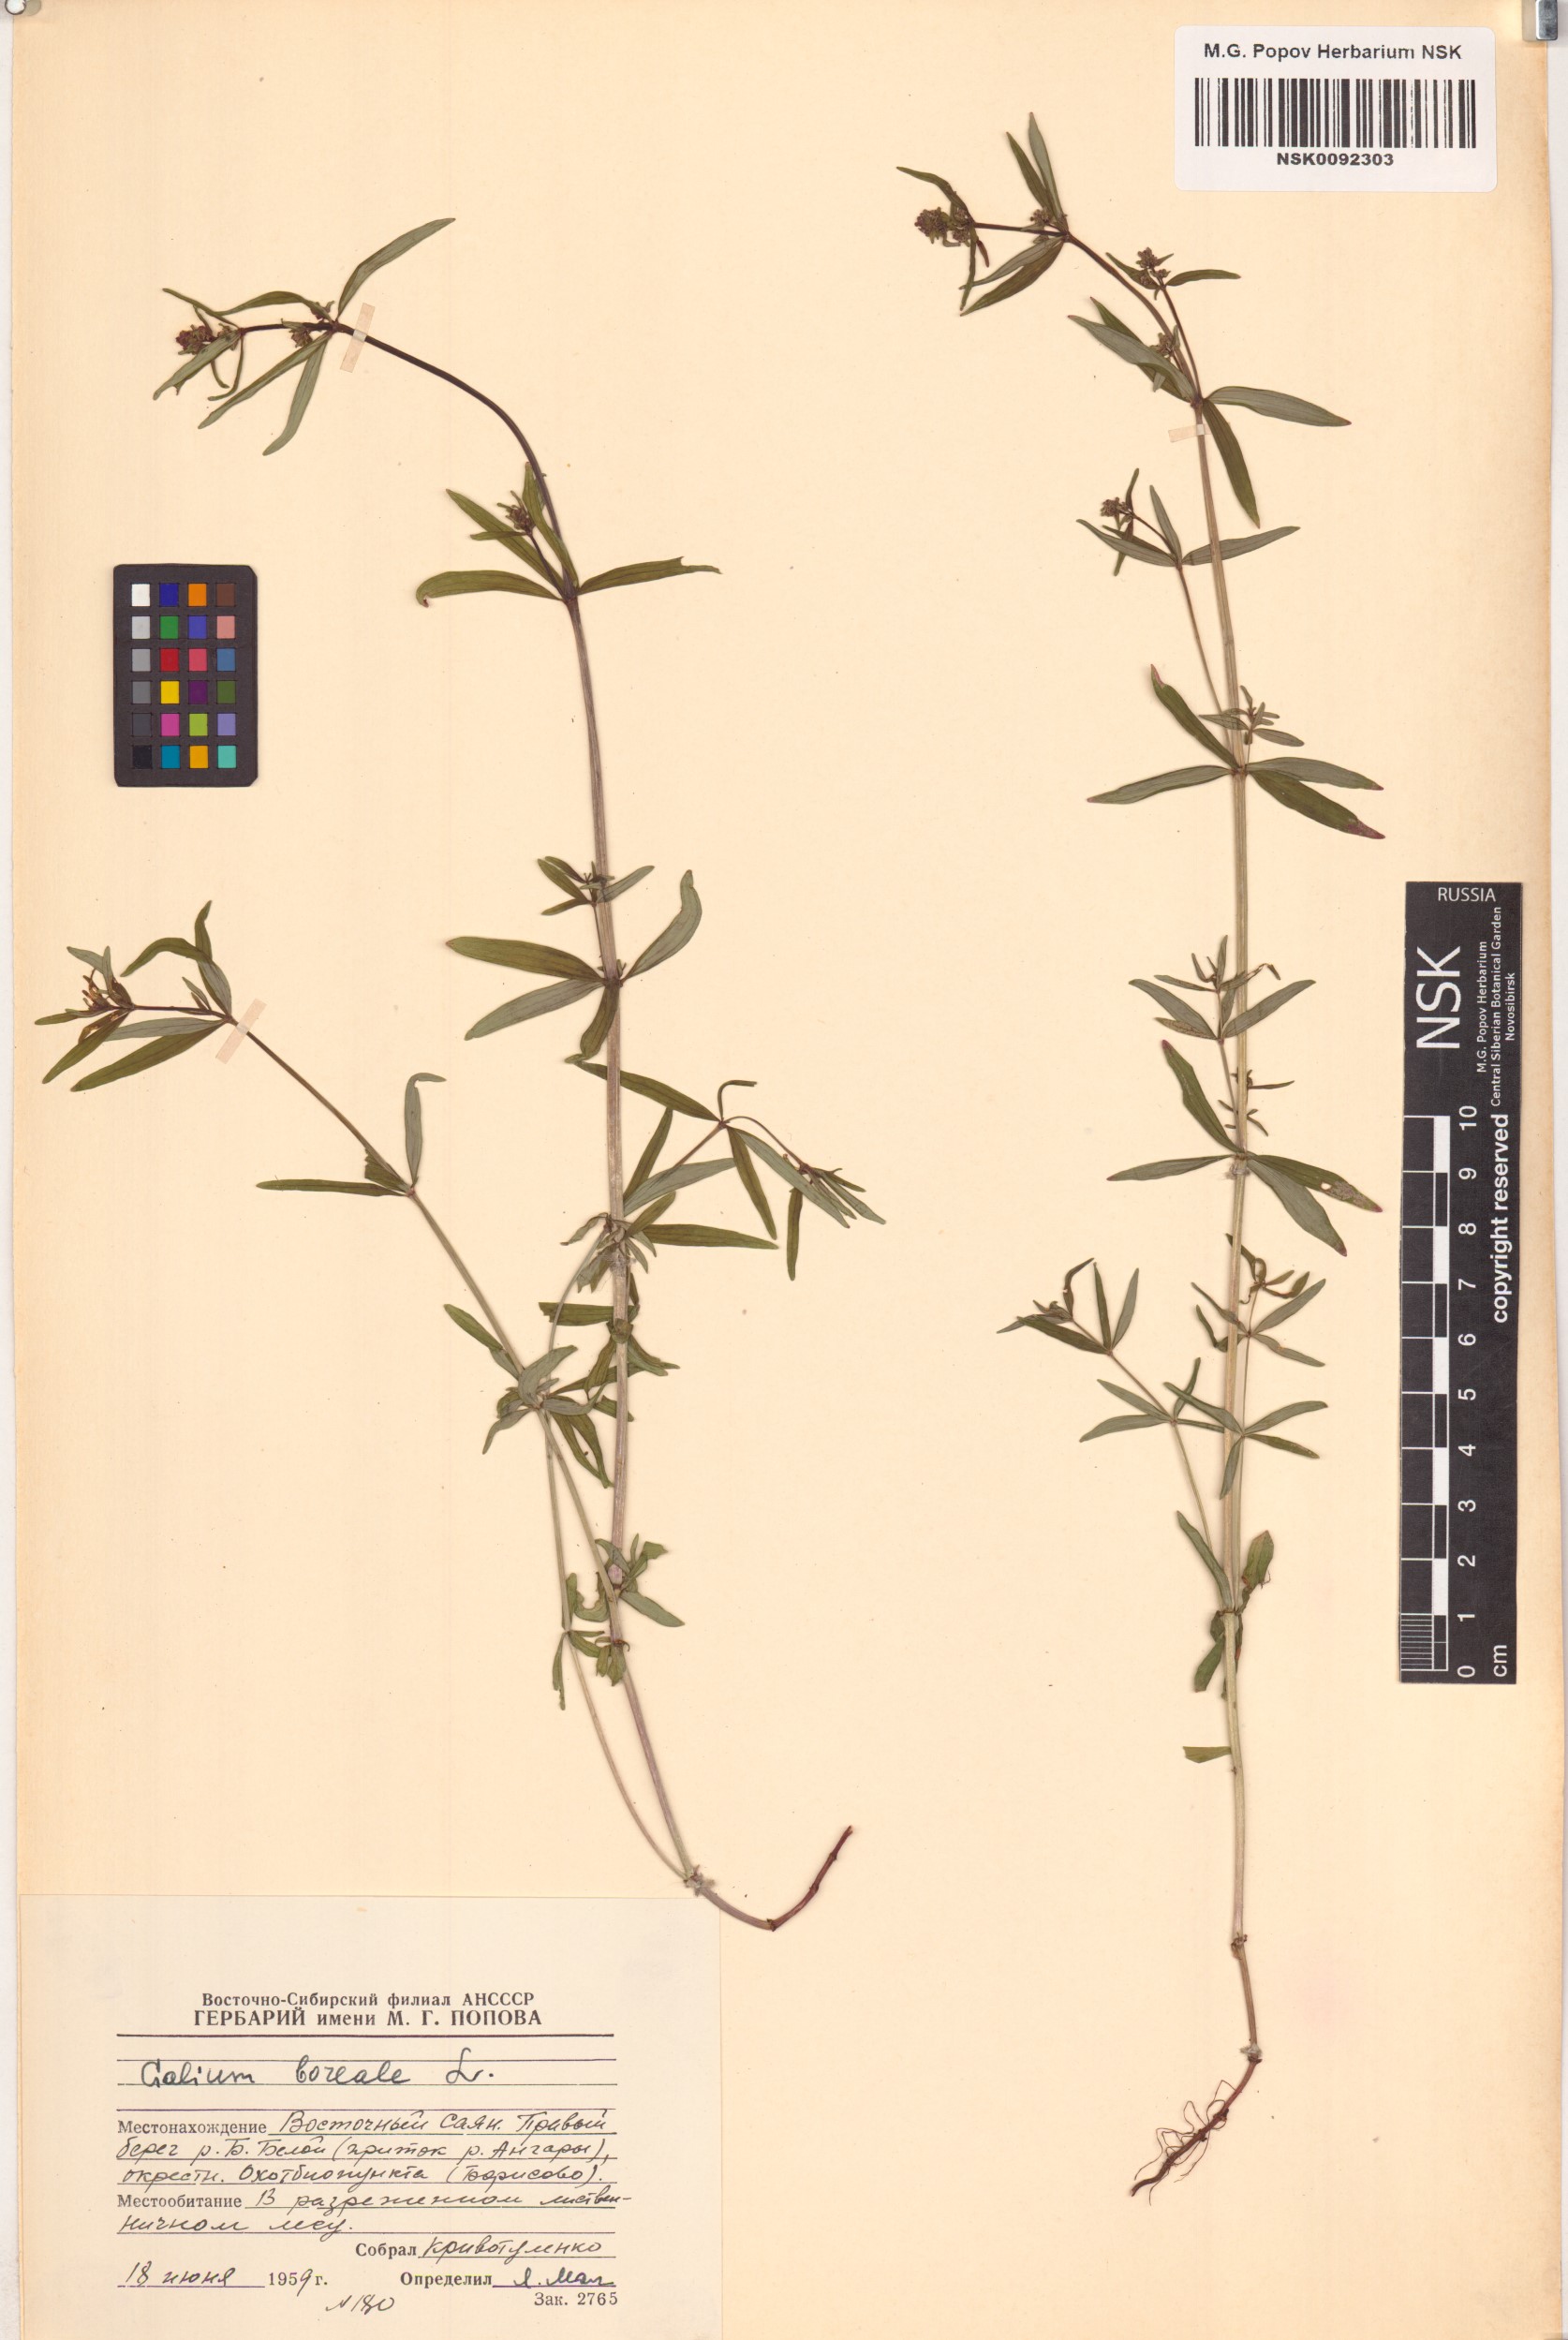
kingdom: Plantae
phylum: Tracheophyta
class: Magnoliopsida
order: Gentianales
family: Rubiaceae
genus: Galium
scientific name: Galium boreale
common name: Northern bedstraw
